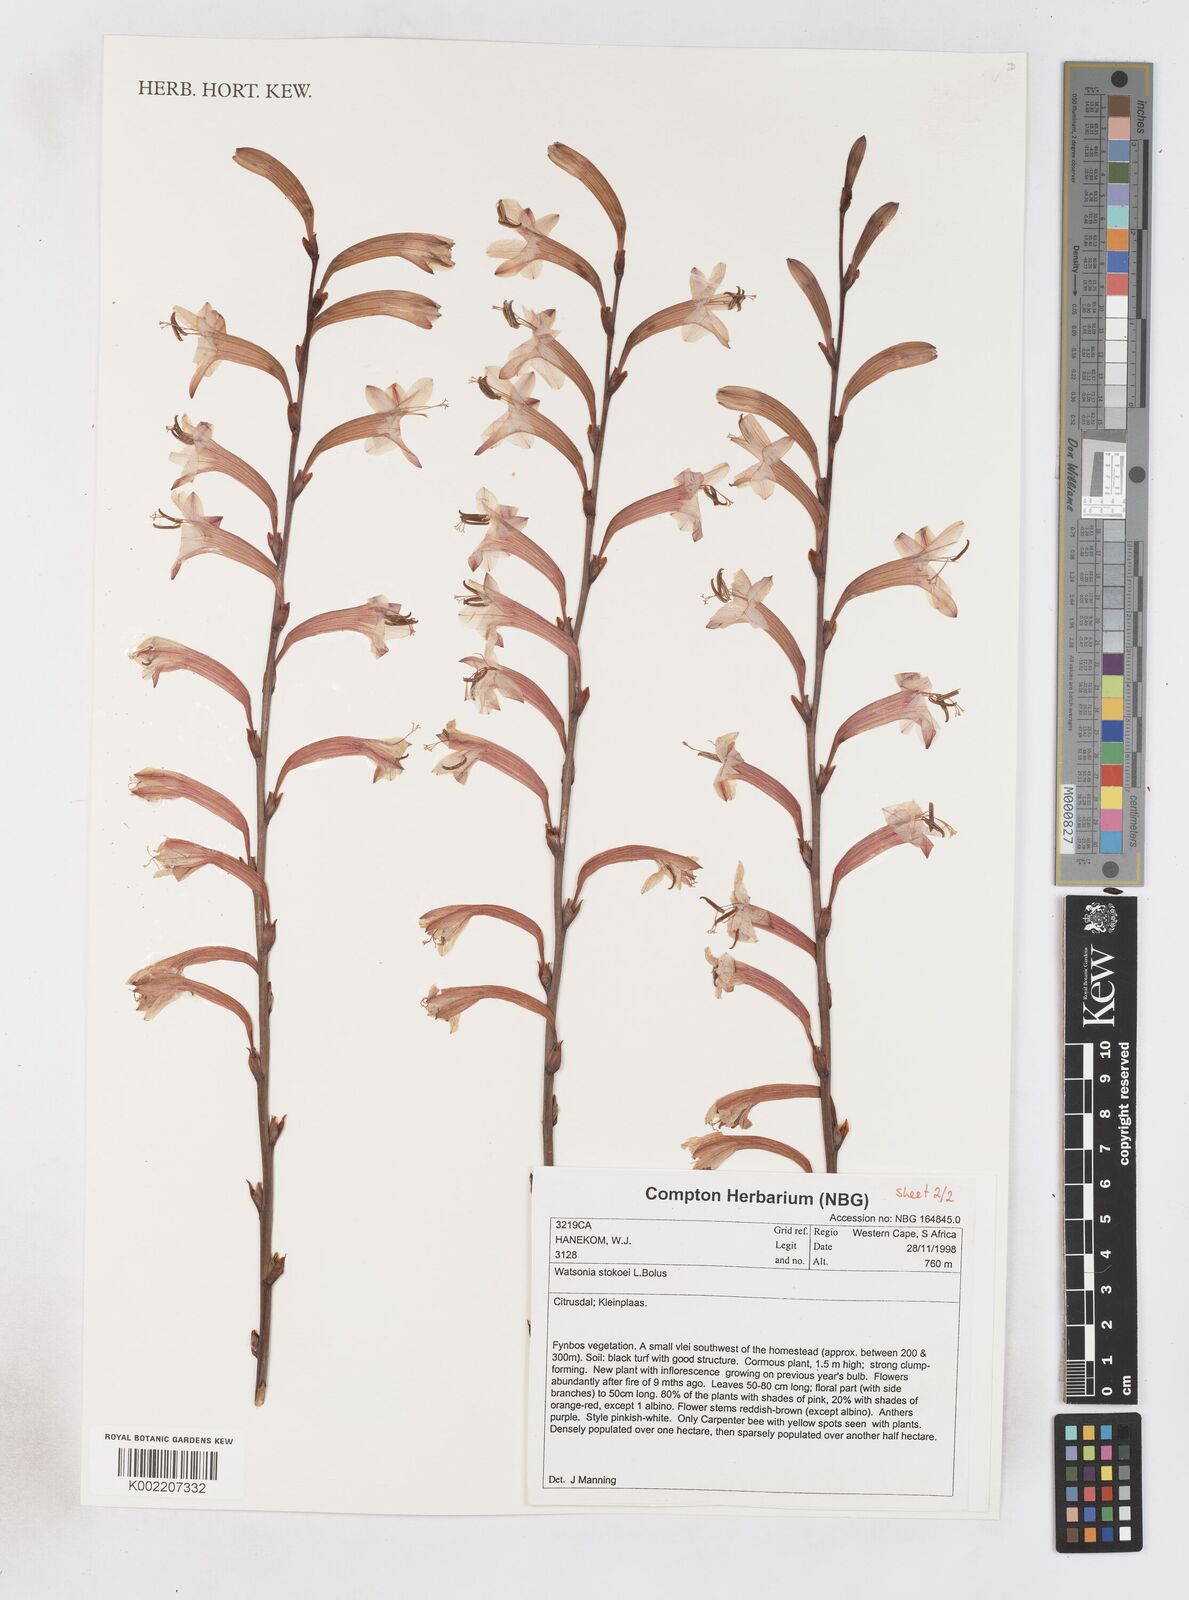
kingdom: Plantae
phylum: Tracheophyta
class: Liliopsida
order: Asparagales
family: Iridaceae
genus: Watsonia
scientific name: Watsonia stokoei
